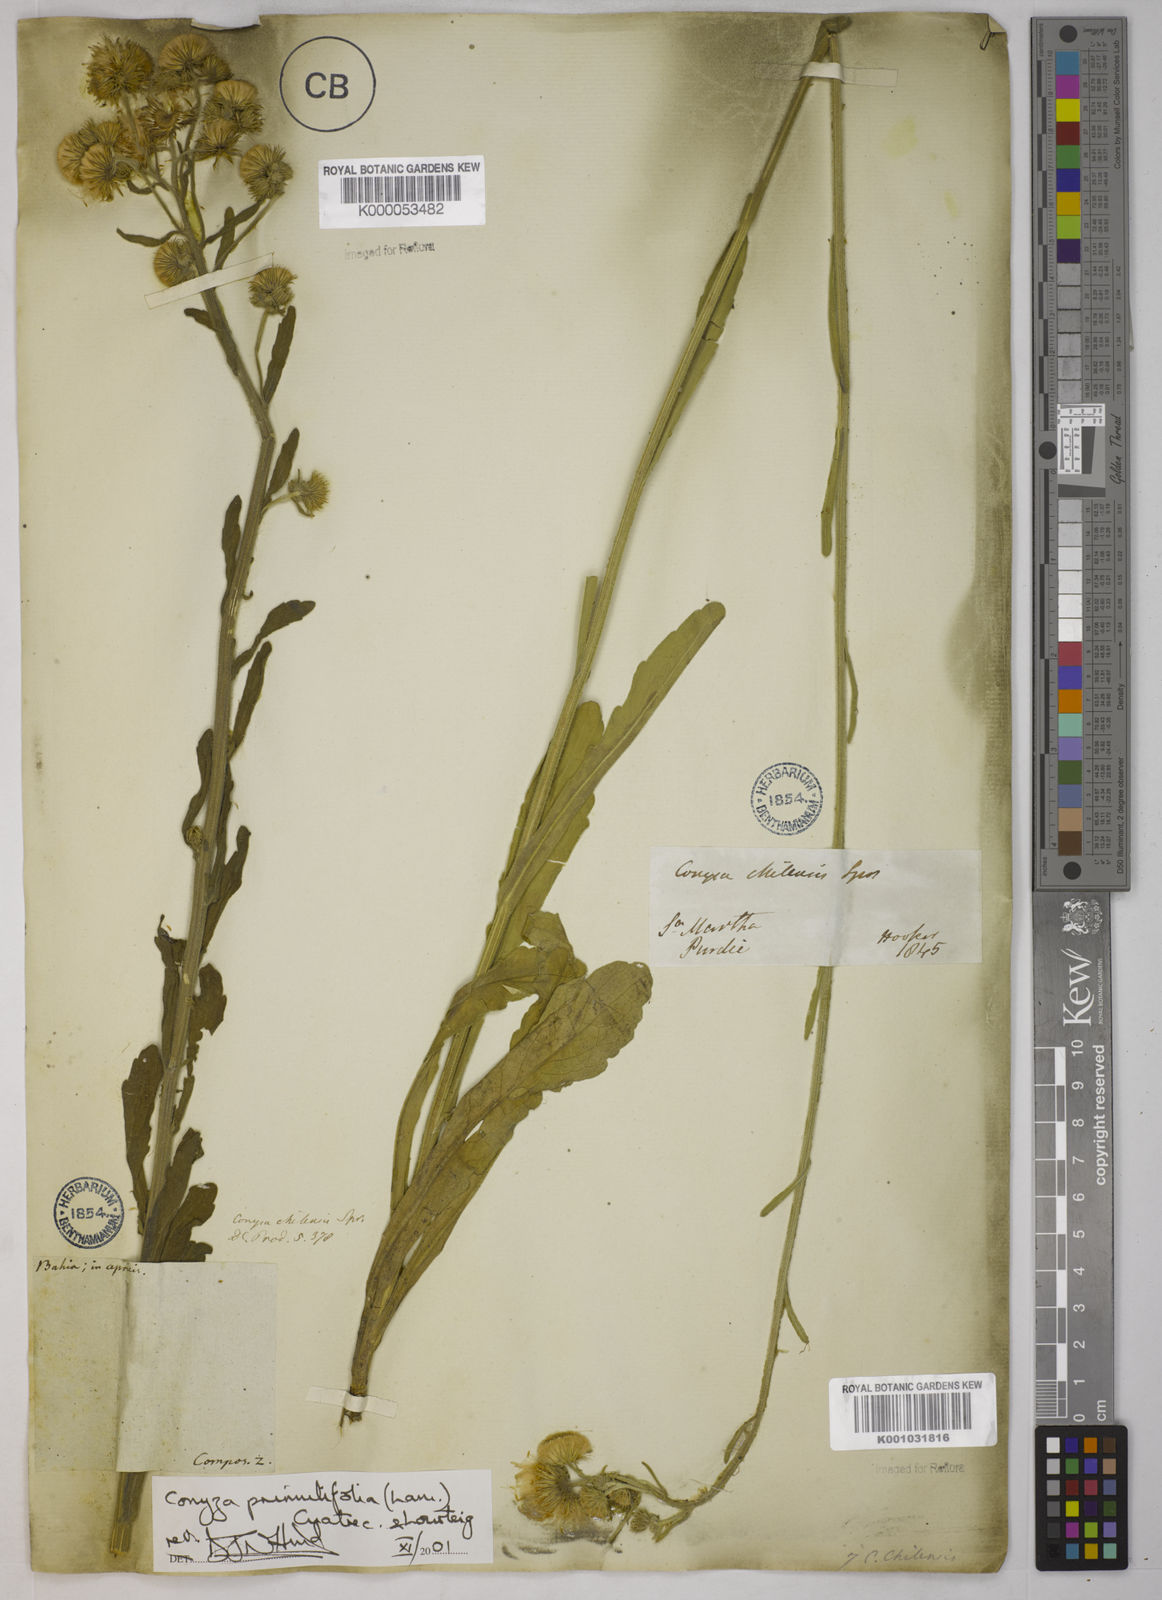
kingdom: Plantae
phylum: Tracheophyta
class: Magnoliopsida
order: Asterales
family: Asteraceae
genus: Erigeron
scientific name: Erigeron primulifolius
